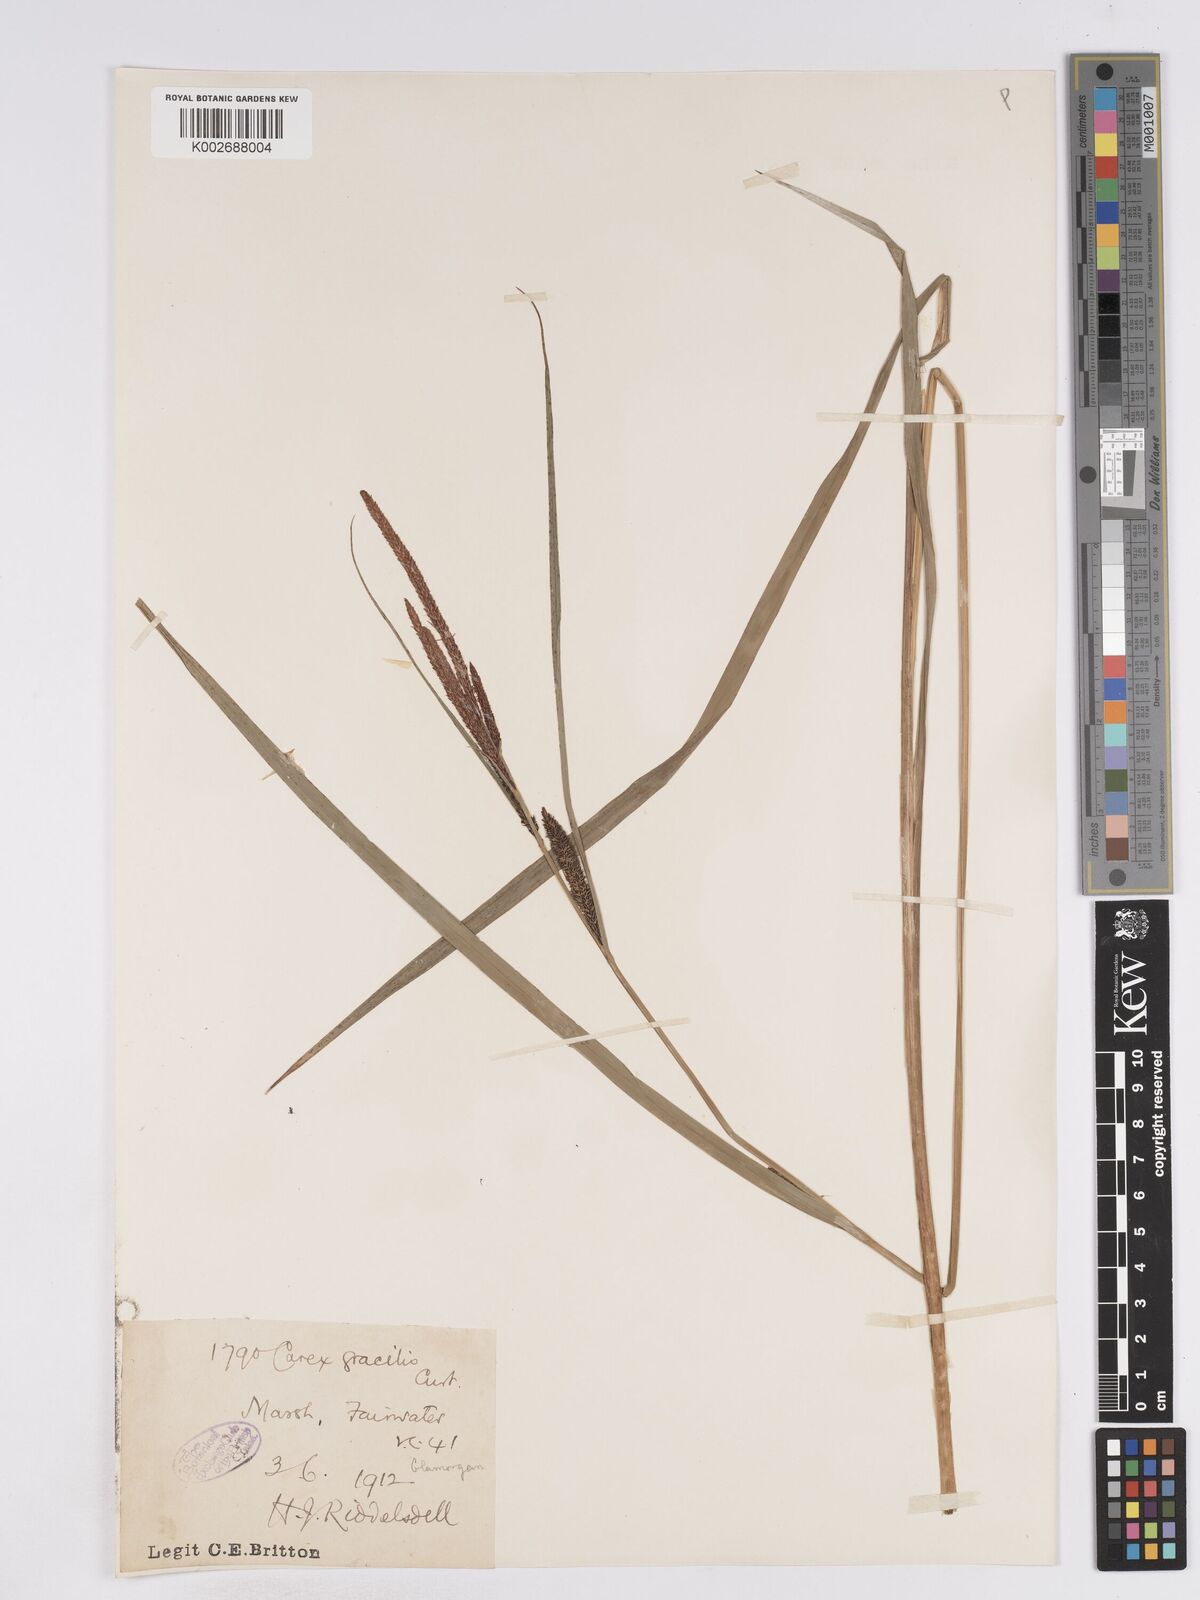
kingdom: Plantae
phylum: Tracheophyta
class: Liliopsida
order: Poales
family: Cyperaceae
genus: Carex
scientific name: Carex acuta
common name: Slender tufted-sedge
